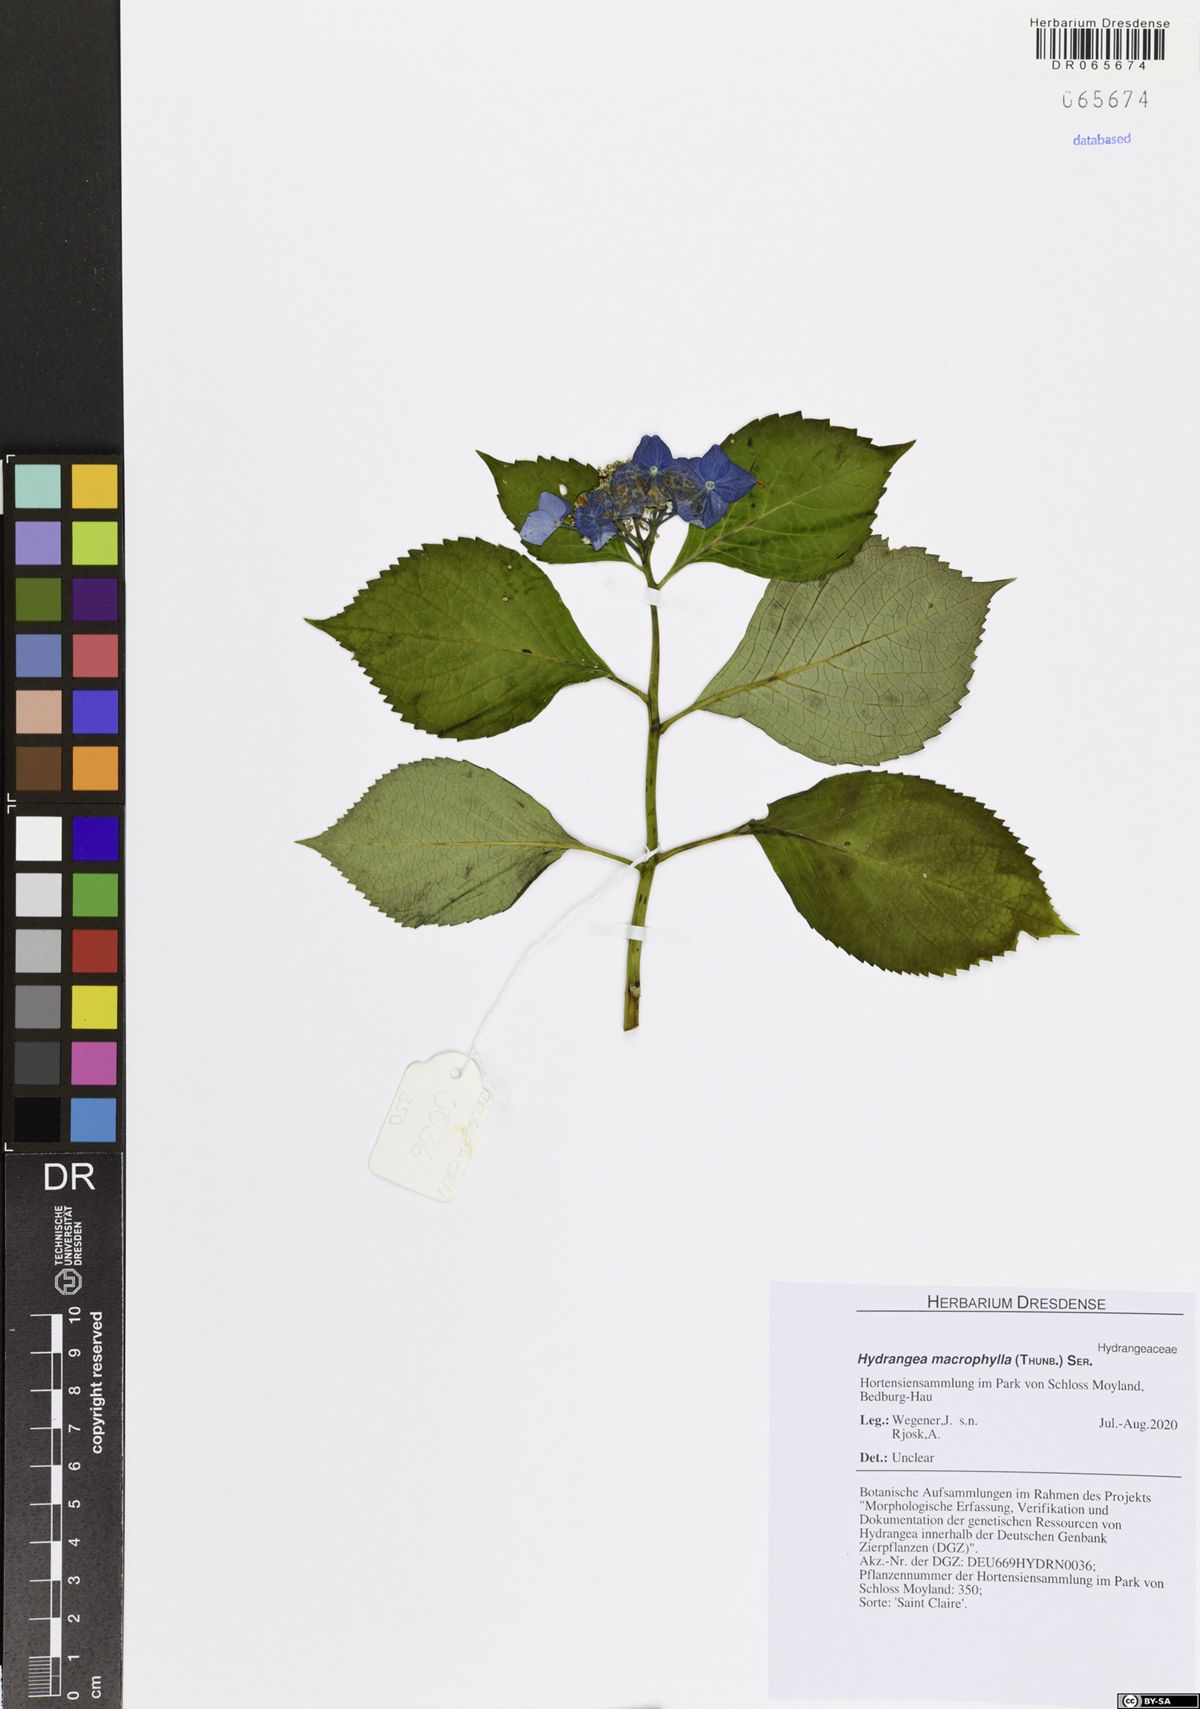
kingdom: Plantae
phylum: Tracheophyta
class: Magnoliopsida
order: Cornales
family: Hydrangeaceae
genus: Hydrangea
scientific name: Hydrangea macrophylla
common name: Hydrangea
